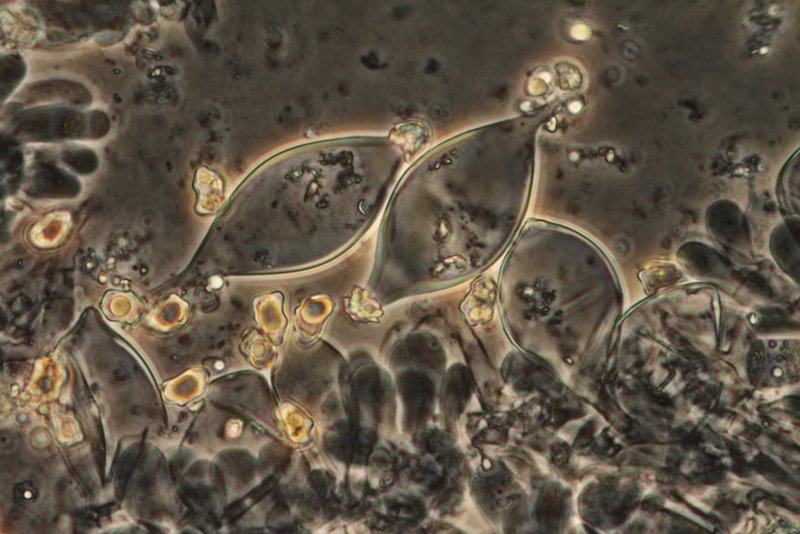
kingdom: Fungi
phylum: Basidiomycota
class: Agaricomycetes
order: Agaricales
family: Inocybaceae
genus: Inocybe
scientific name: Inocybe curvipes
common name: plæne-trævlhat
